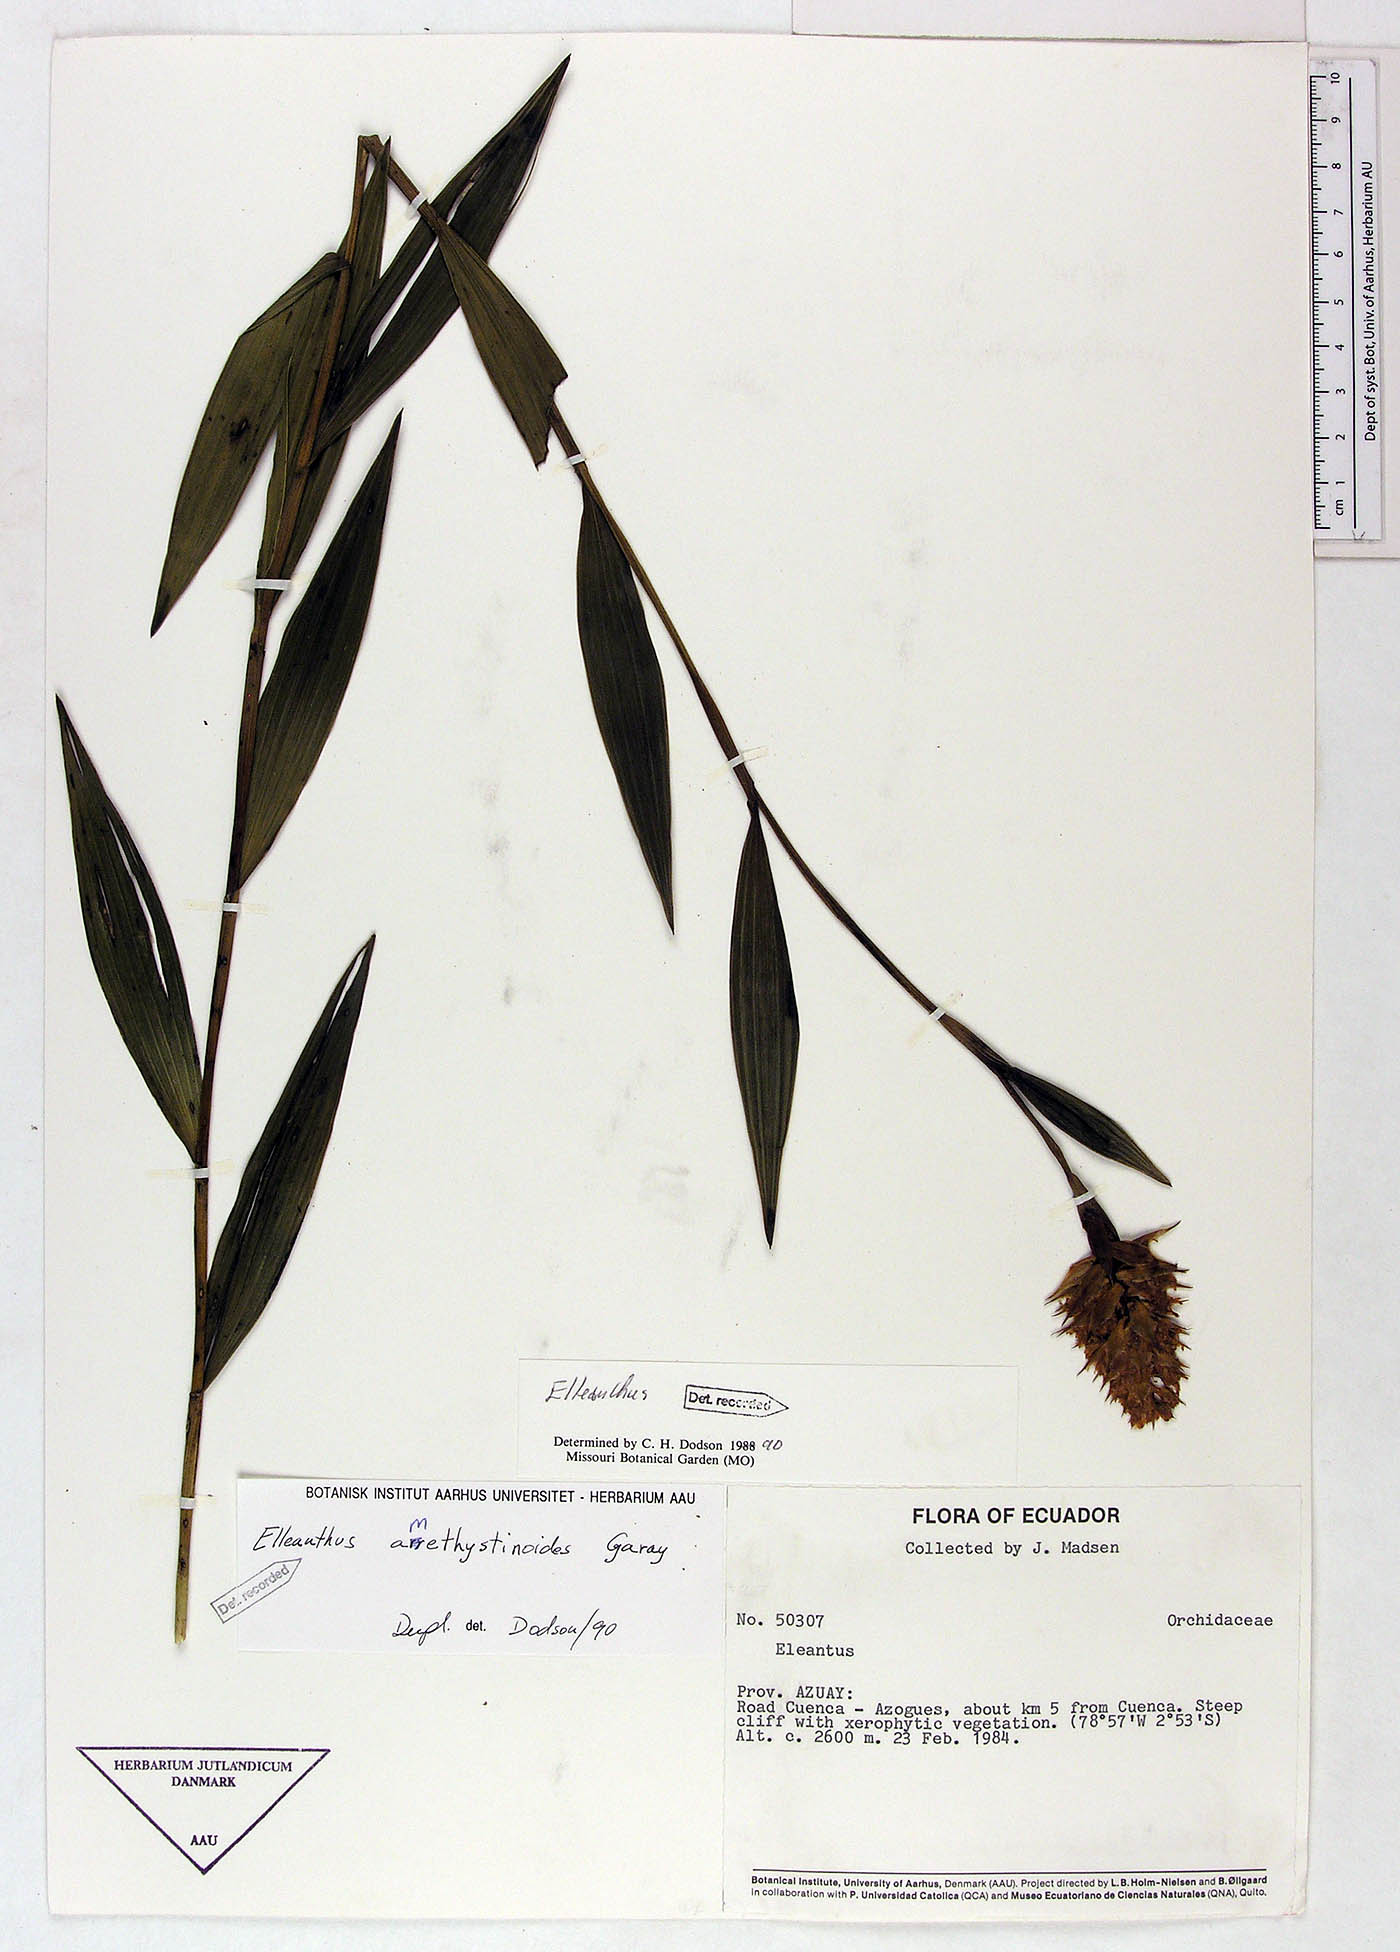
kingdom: Plantae
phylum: Tracheophyta
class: Liliopsida
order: Asparagales
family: Orchidaceae
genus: Elleanthus
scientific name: Elleanthus amethystinoides
